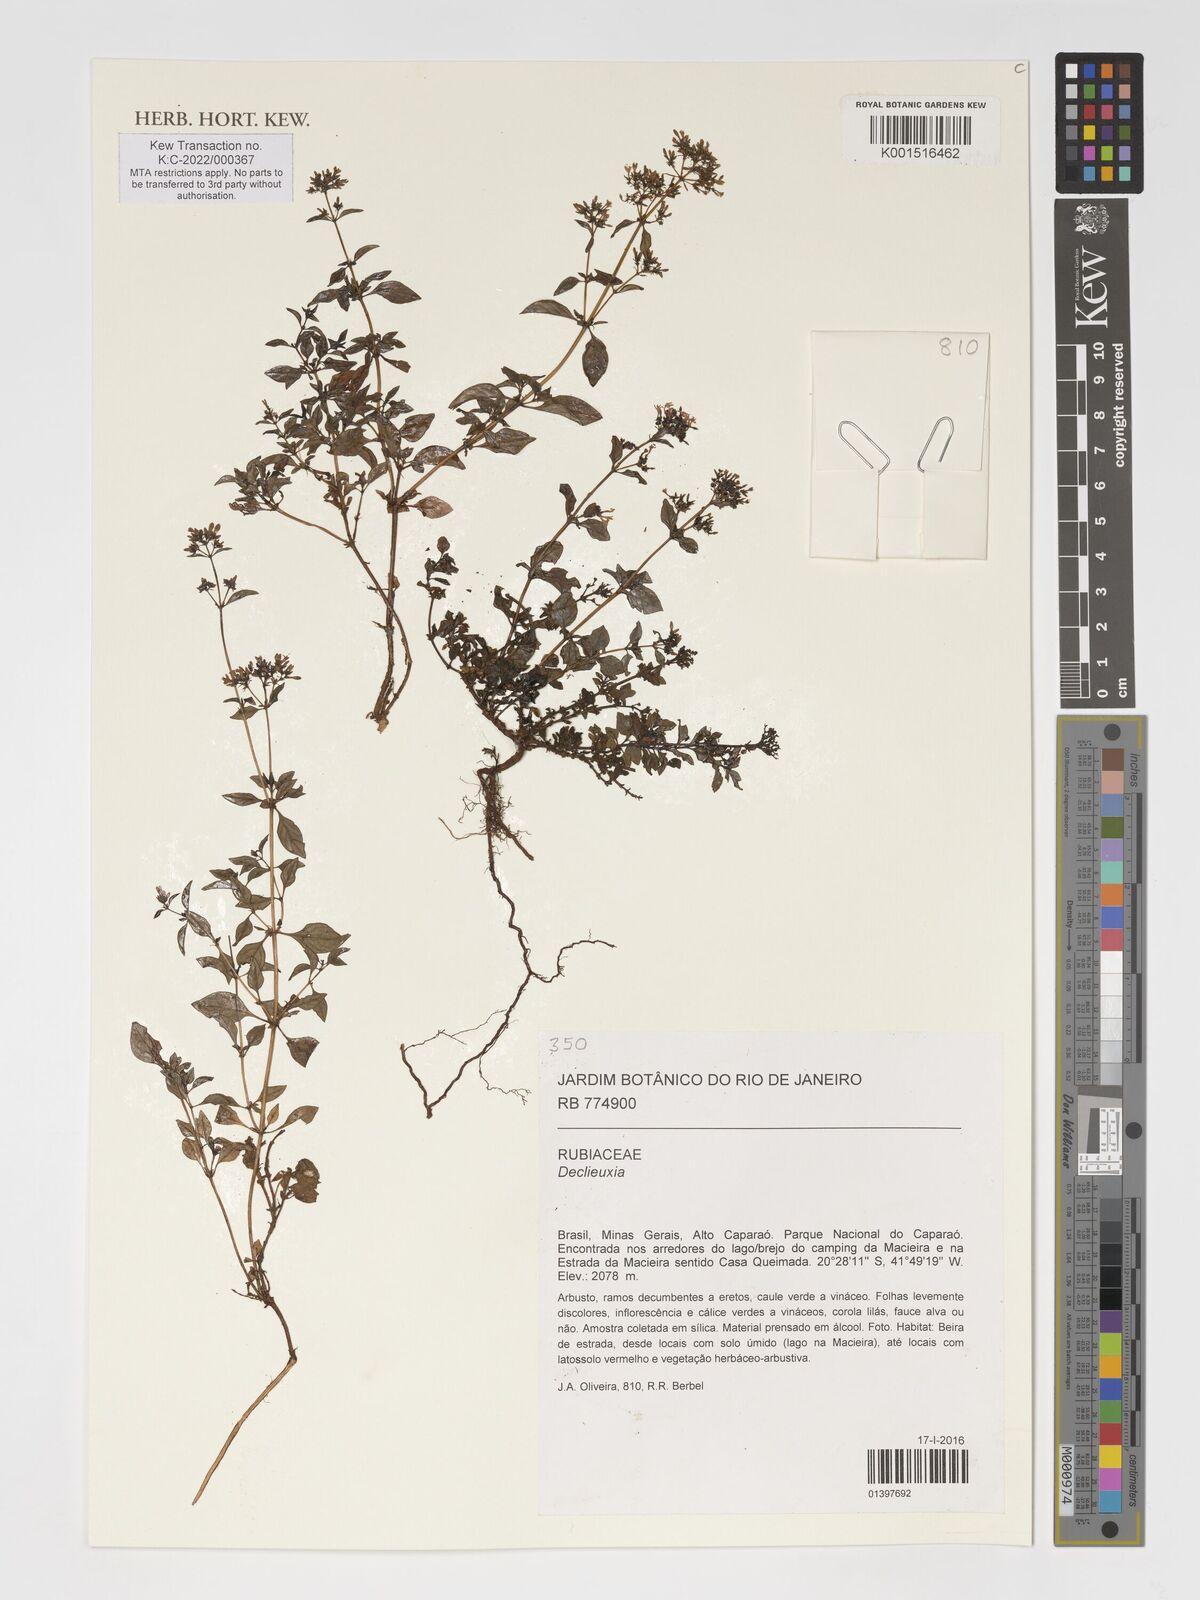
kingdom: Plantae
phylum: Tracheophyta
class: Magnoliopsida
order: Gentianales
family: Rubiaceae
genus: Declieuxia
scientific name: Declieuxia
